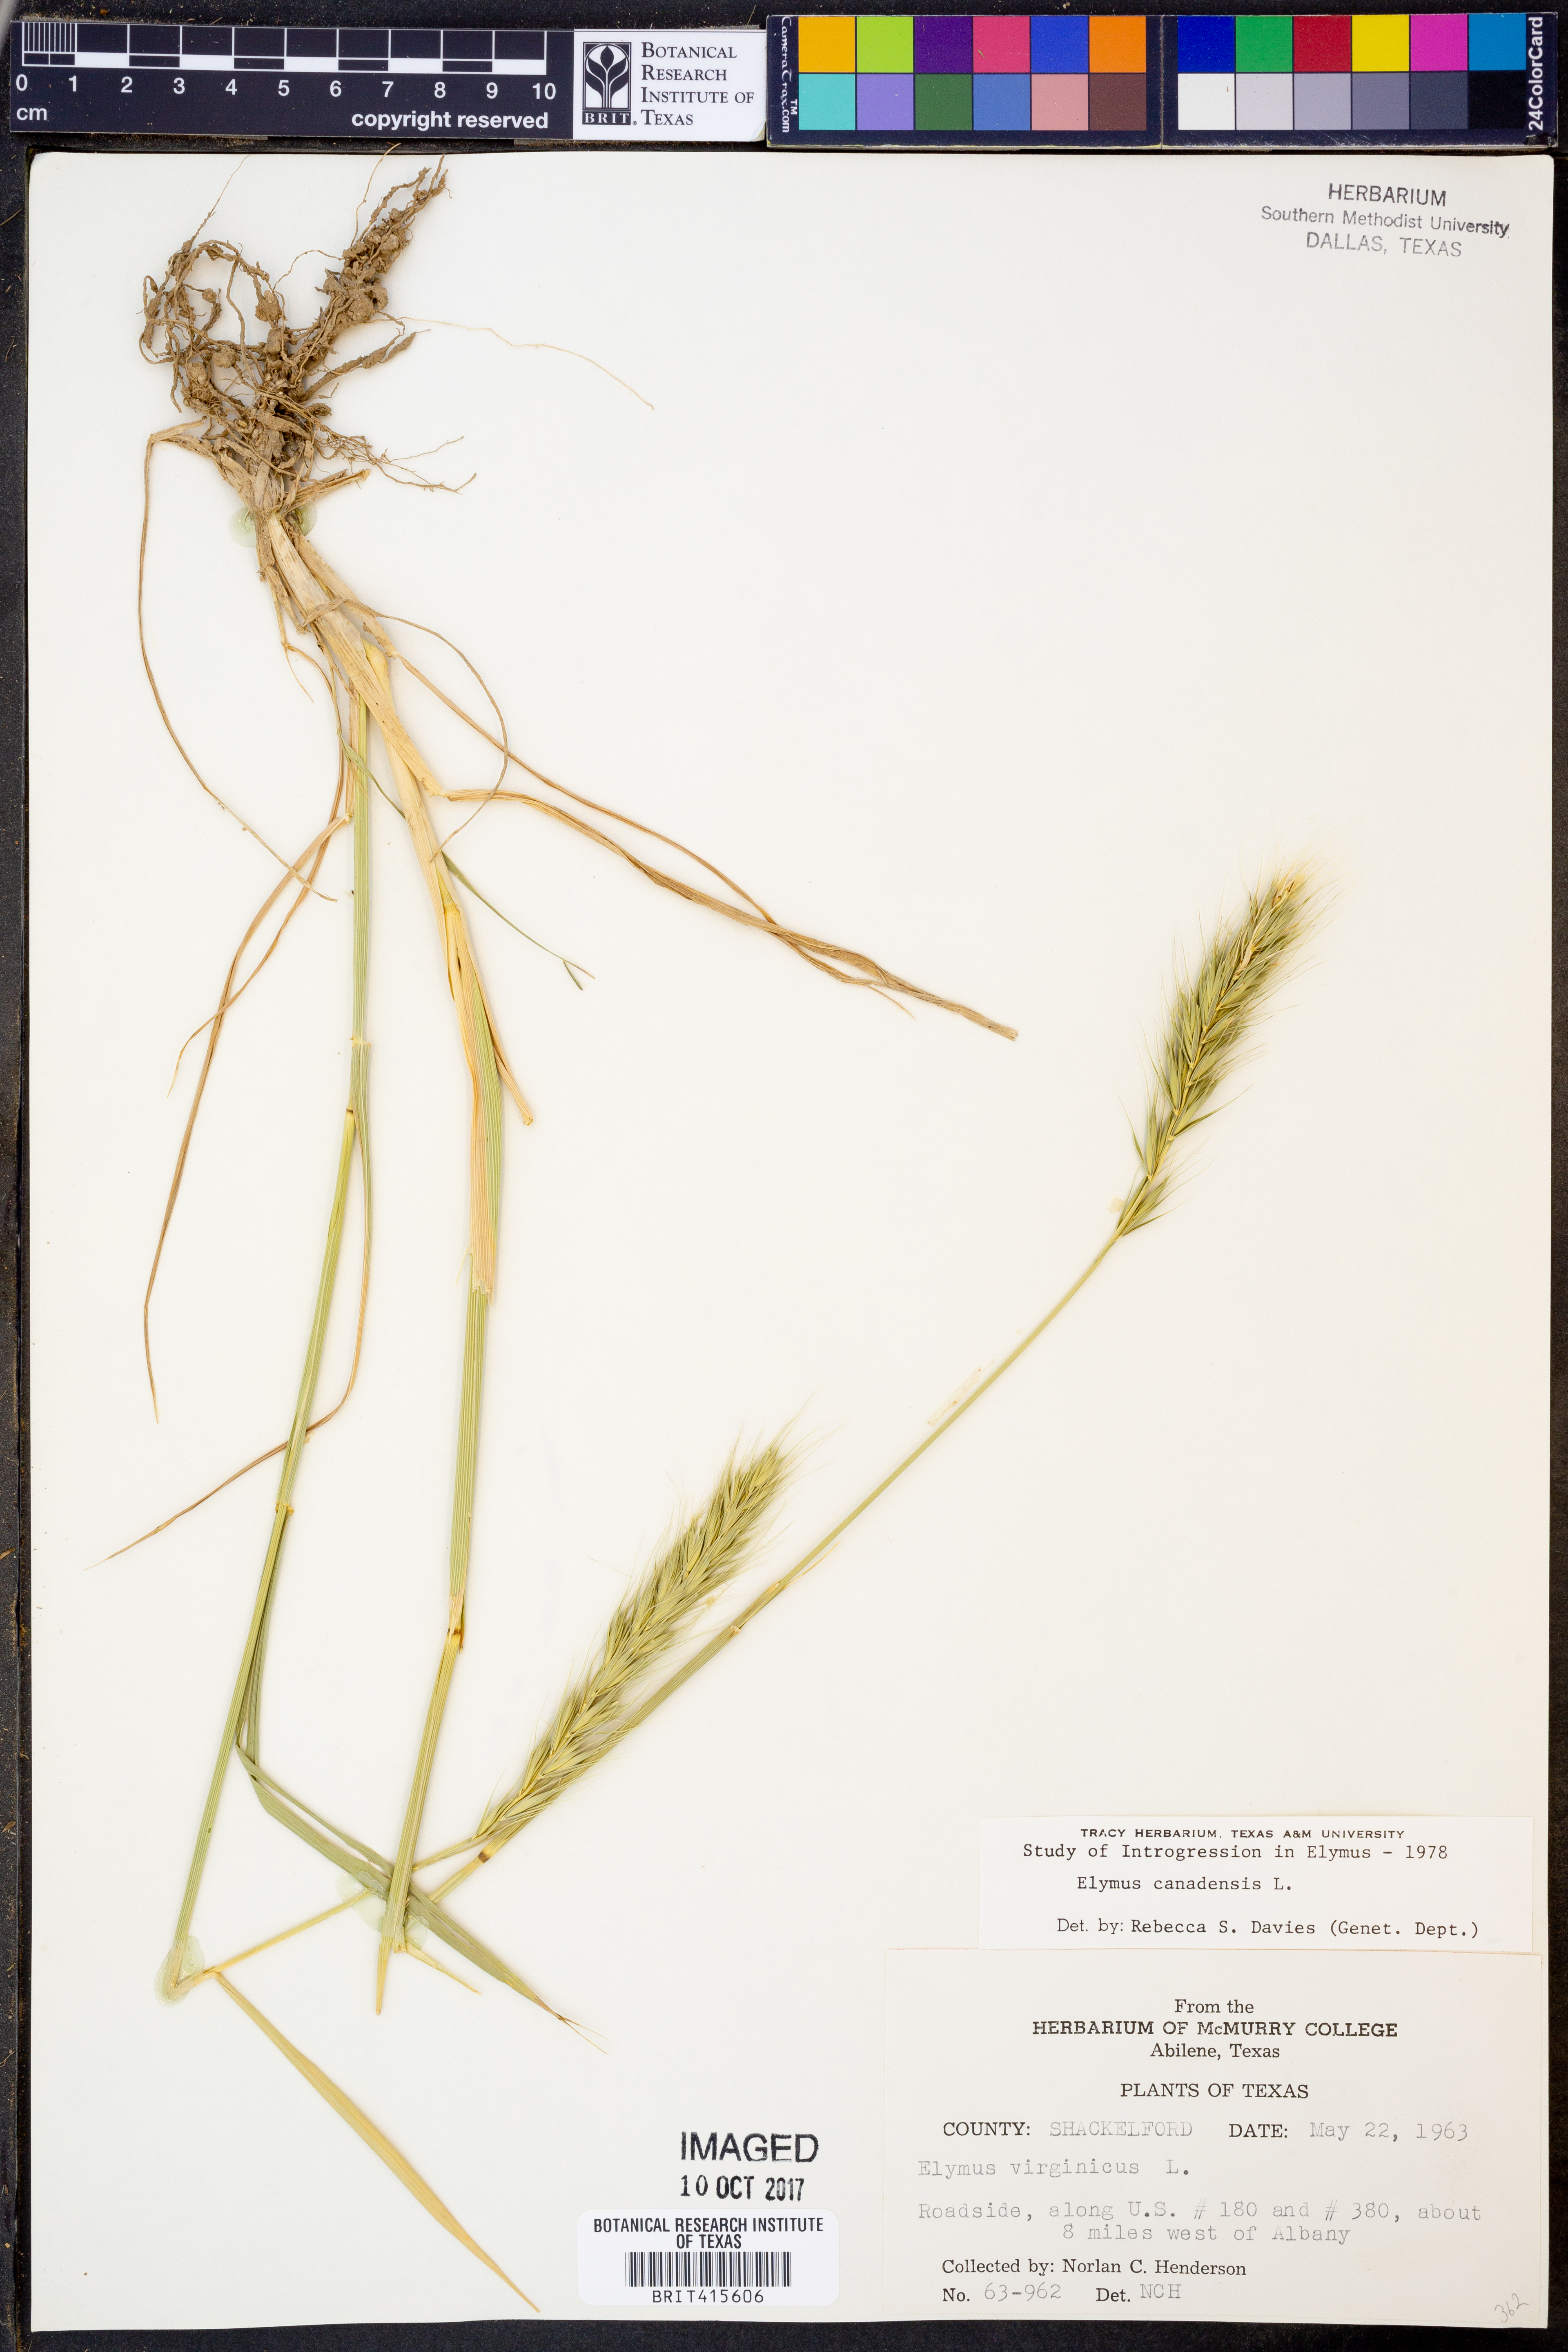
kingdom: Plantae
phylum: Tracheophyta
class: Liliopsida
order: Poales
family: Poaceae
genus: Elymus
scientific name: Elymus canadensis
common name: Canada wild rye
